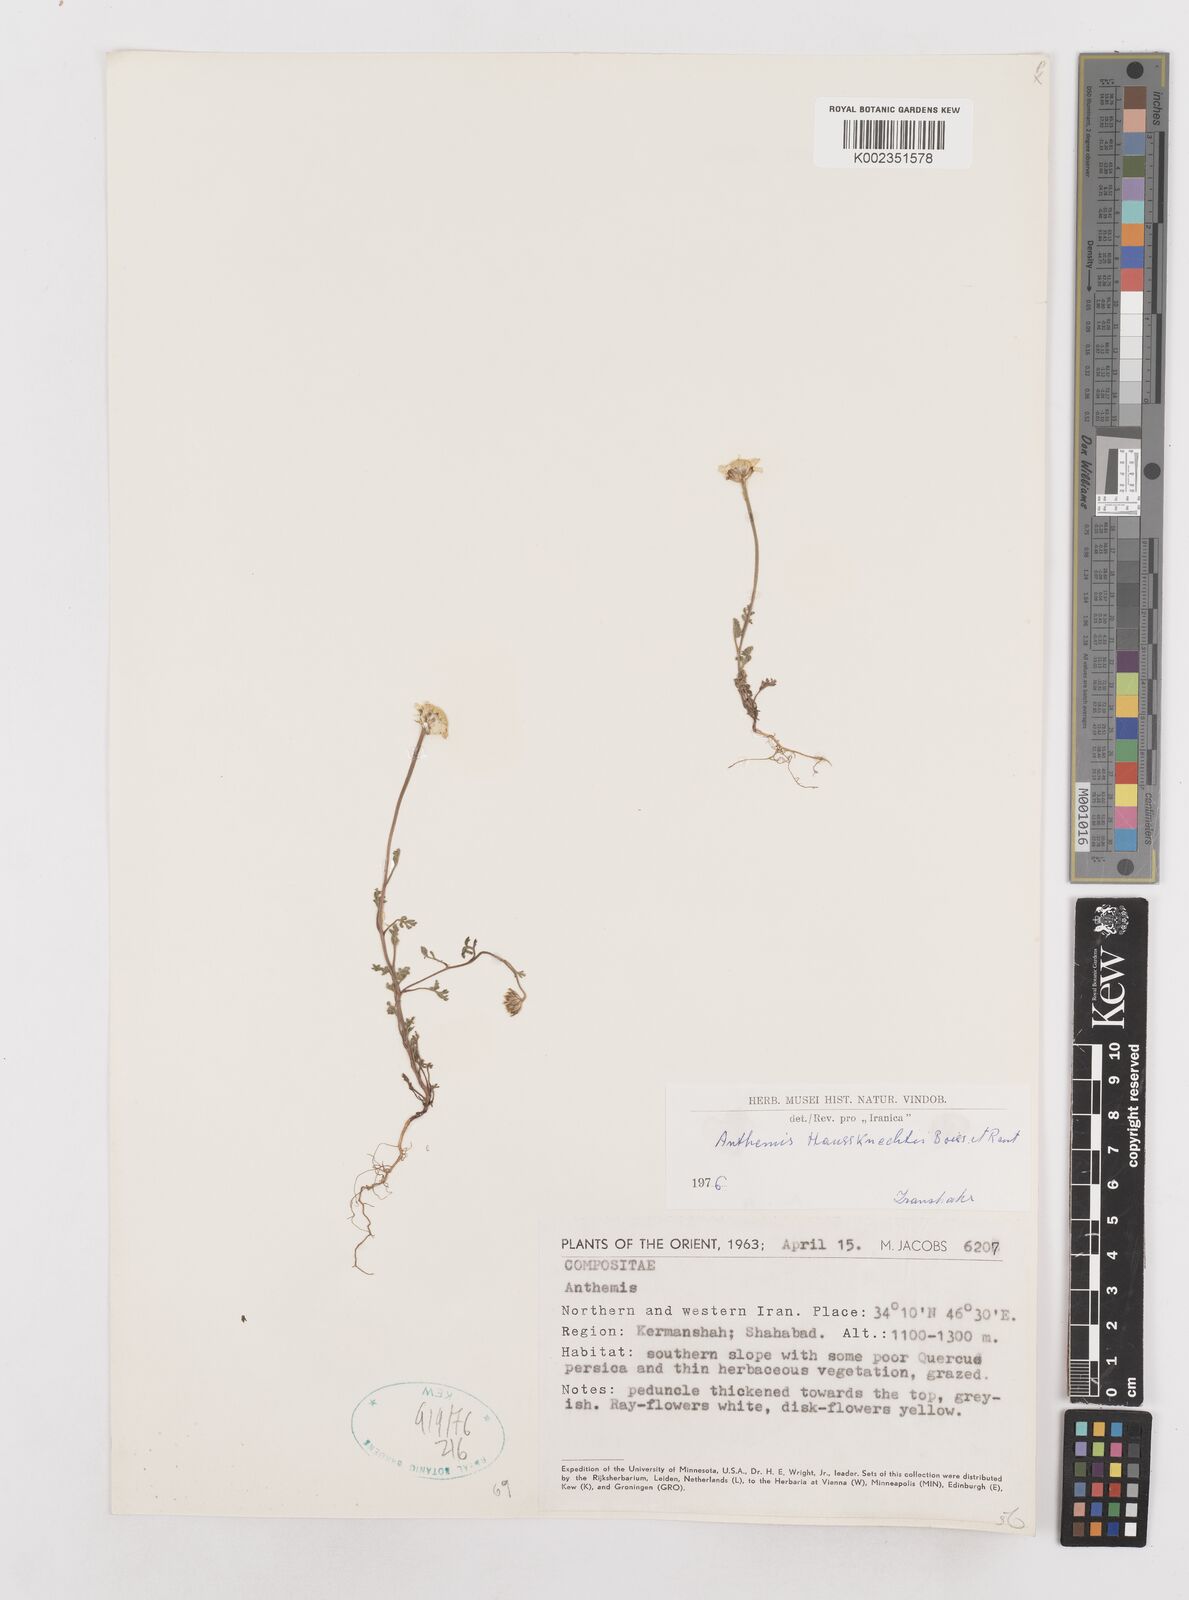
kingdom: Plantae
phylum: Tracheophyta
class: Magnoliopsida
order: Asterales
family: Asteraceae
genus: Anthemis
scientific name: Anthemis haussknechtii
